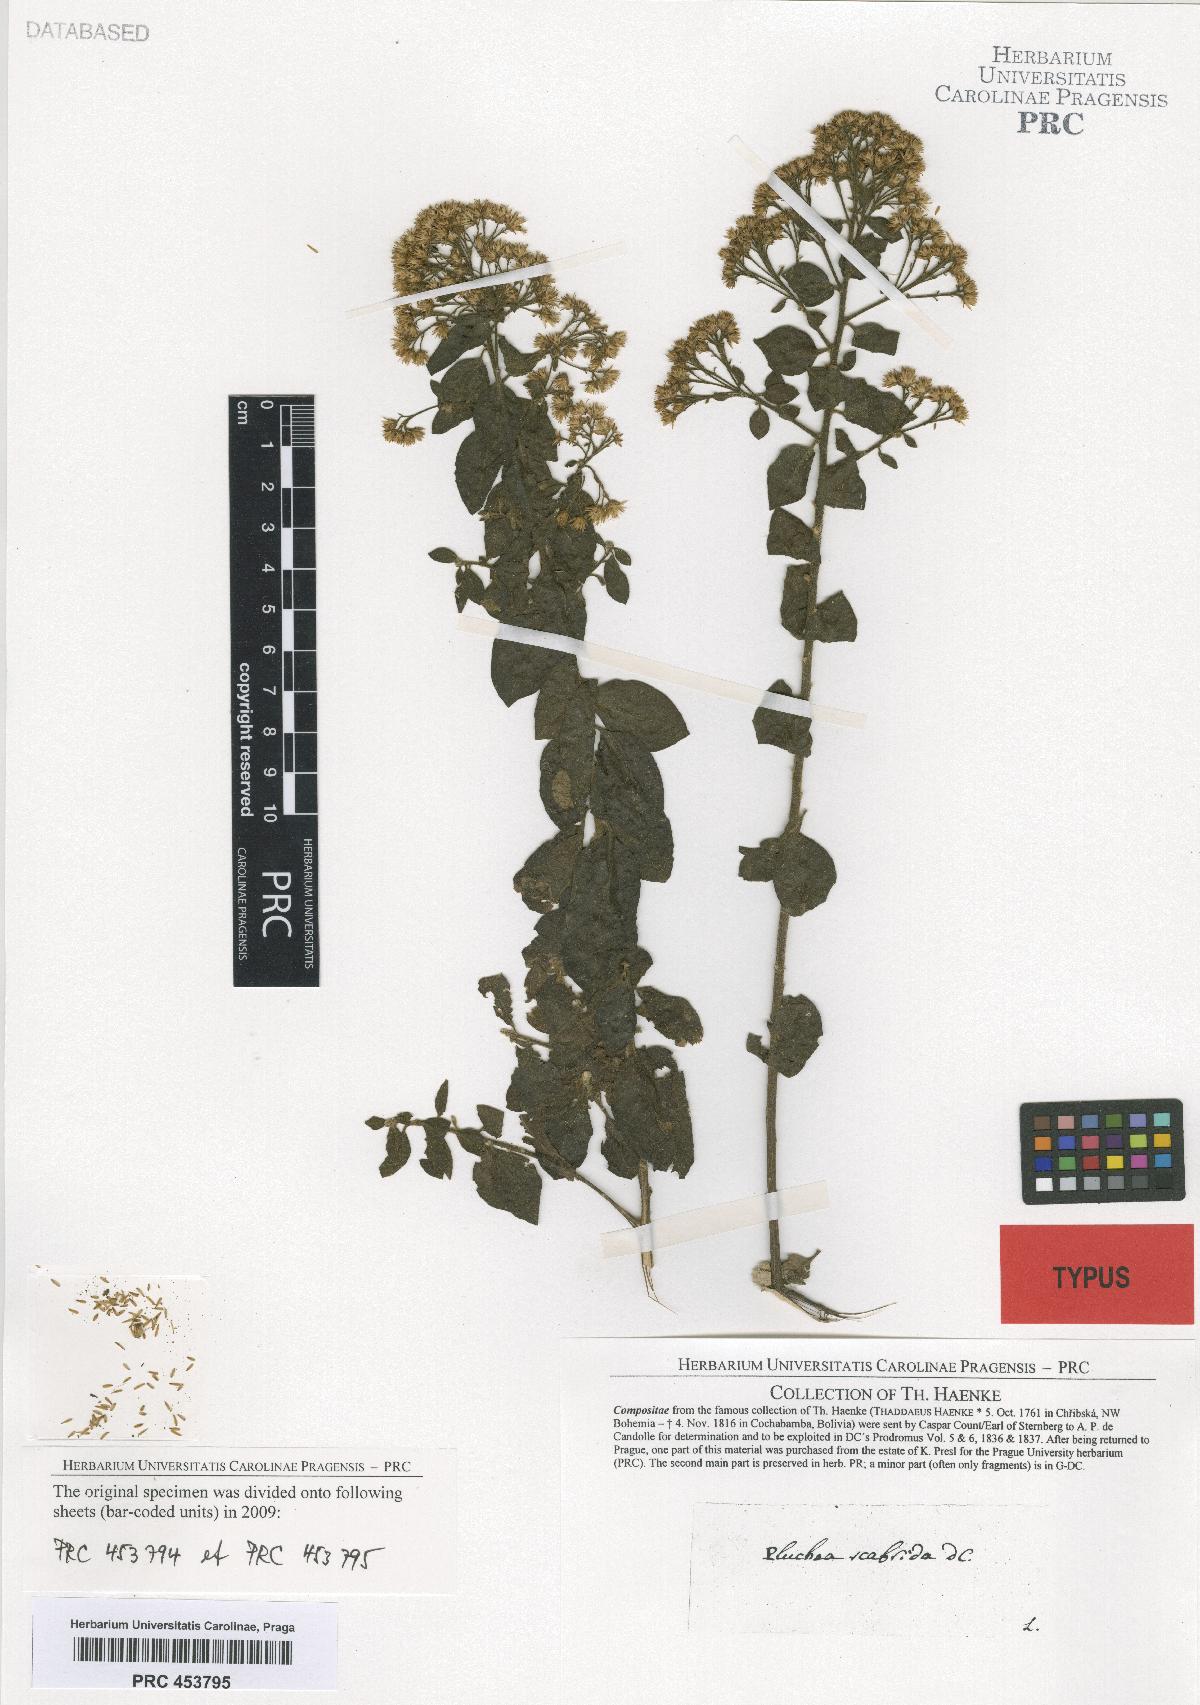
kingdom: Plantae
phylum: Tracheophyta
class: Magnoliopsida
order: Asterales
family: Asteraceae
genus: Pluchea
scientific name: Pluchea scabrida
